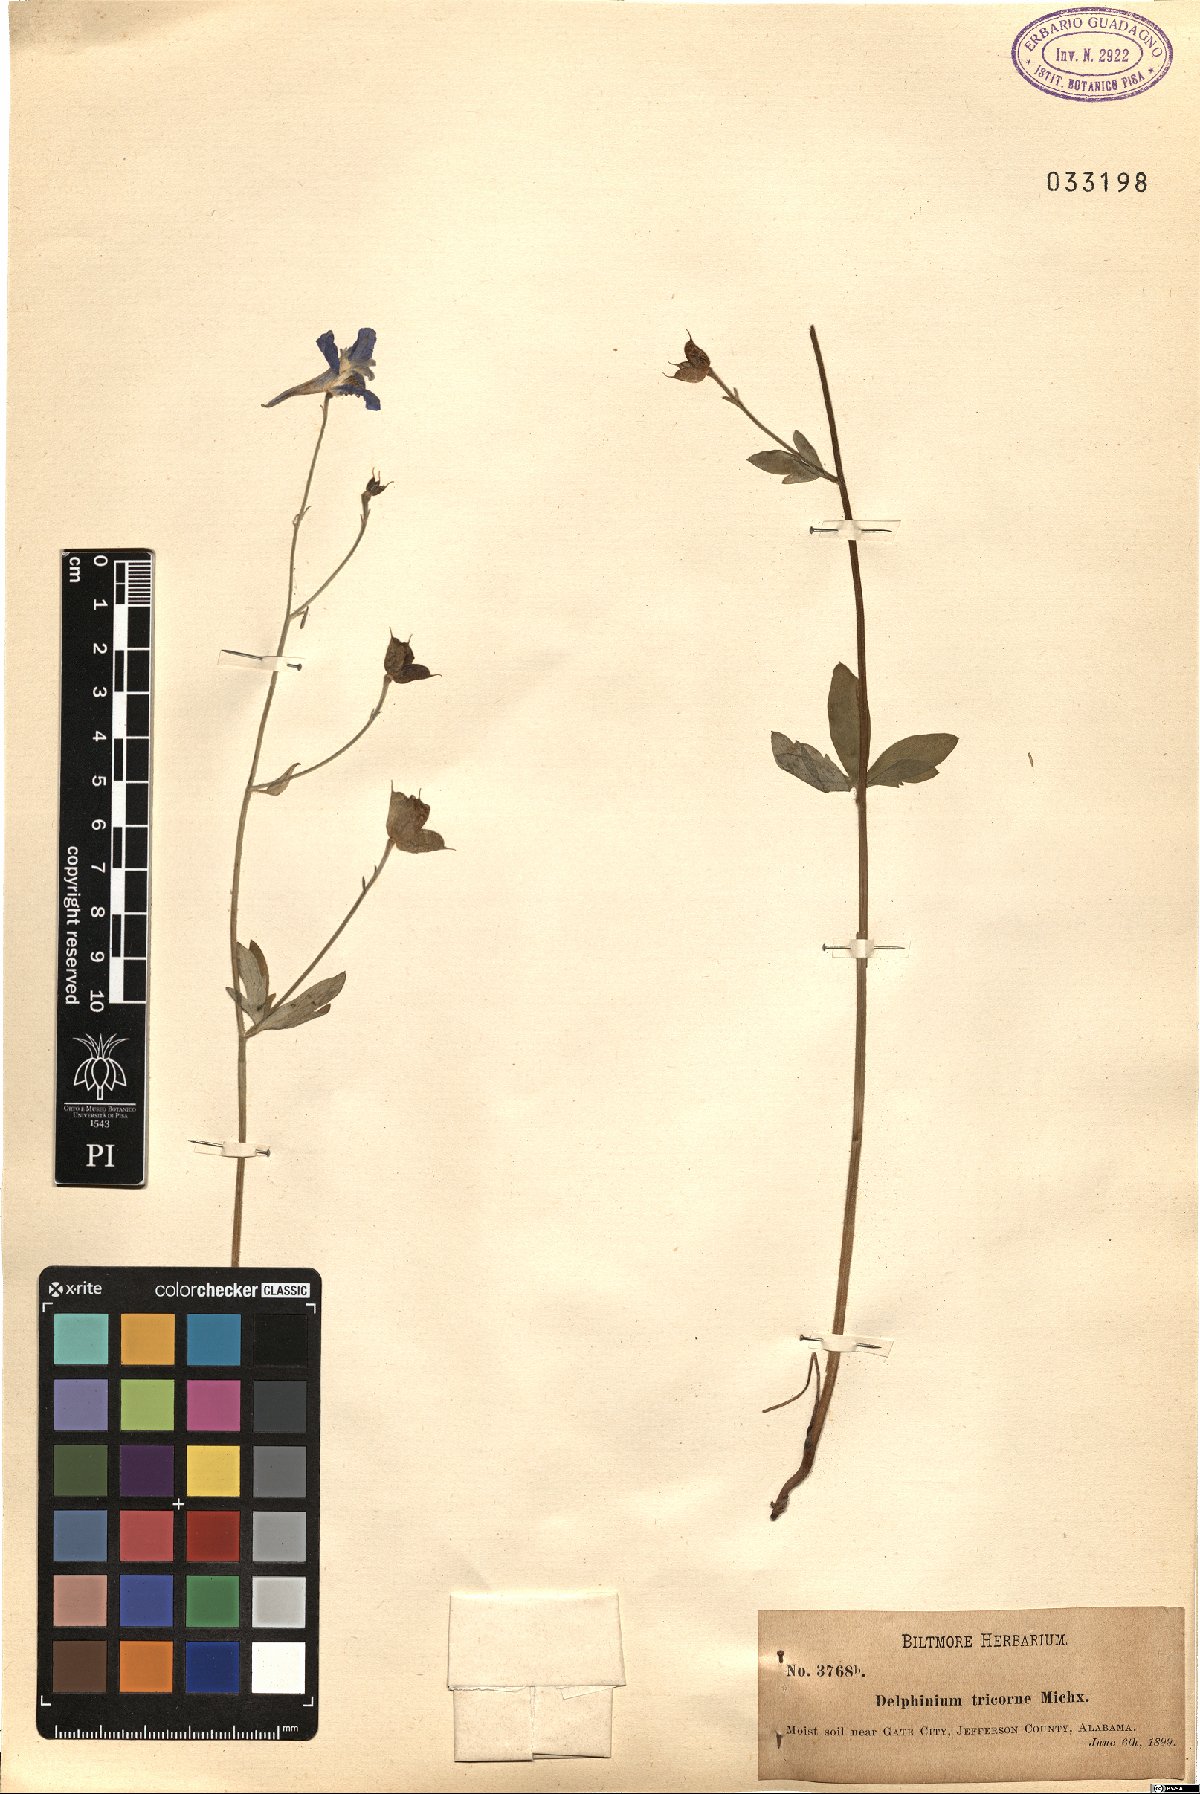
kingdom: Plantae
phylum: Tracheophyta
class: Magnoliopsida
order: Ranunculales
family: Ranunculaceae
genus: Delphinium
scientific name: Delphinium tricorne
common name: Dwarf larkspur
